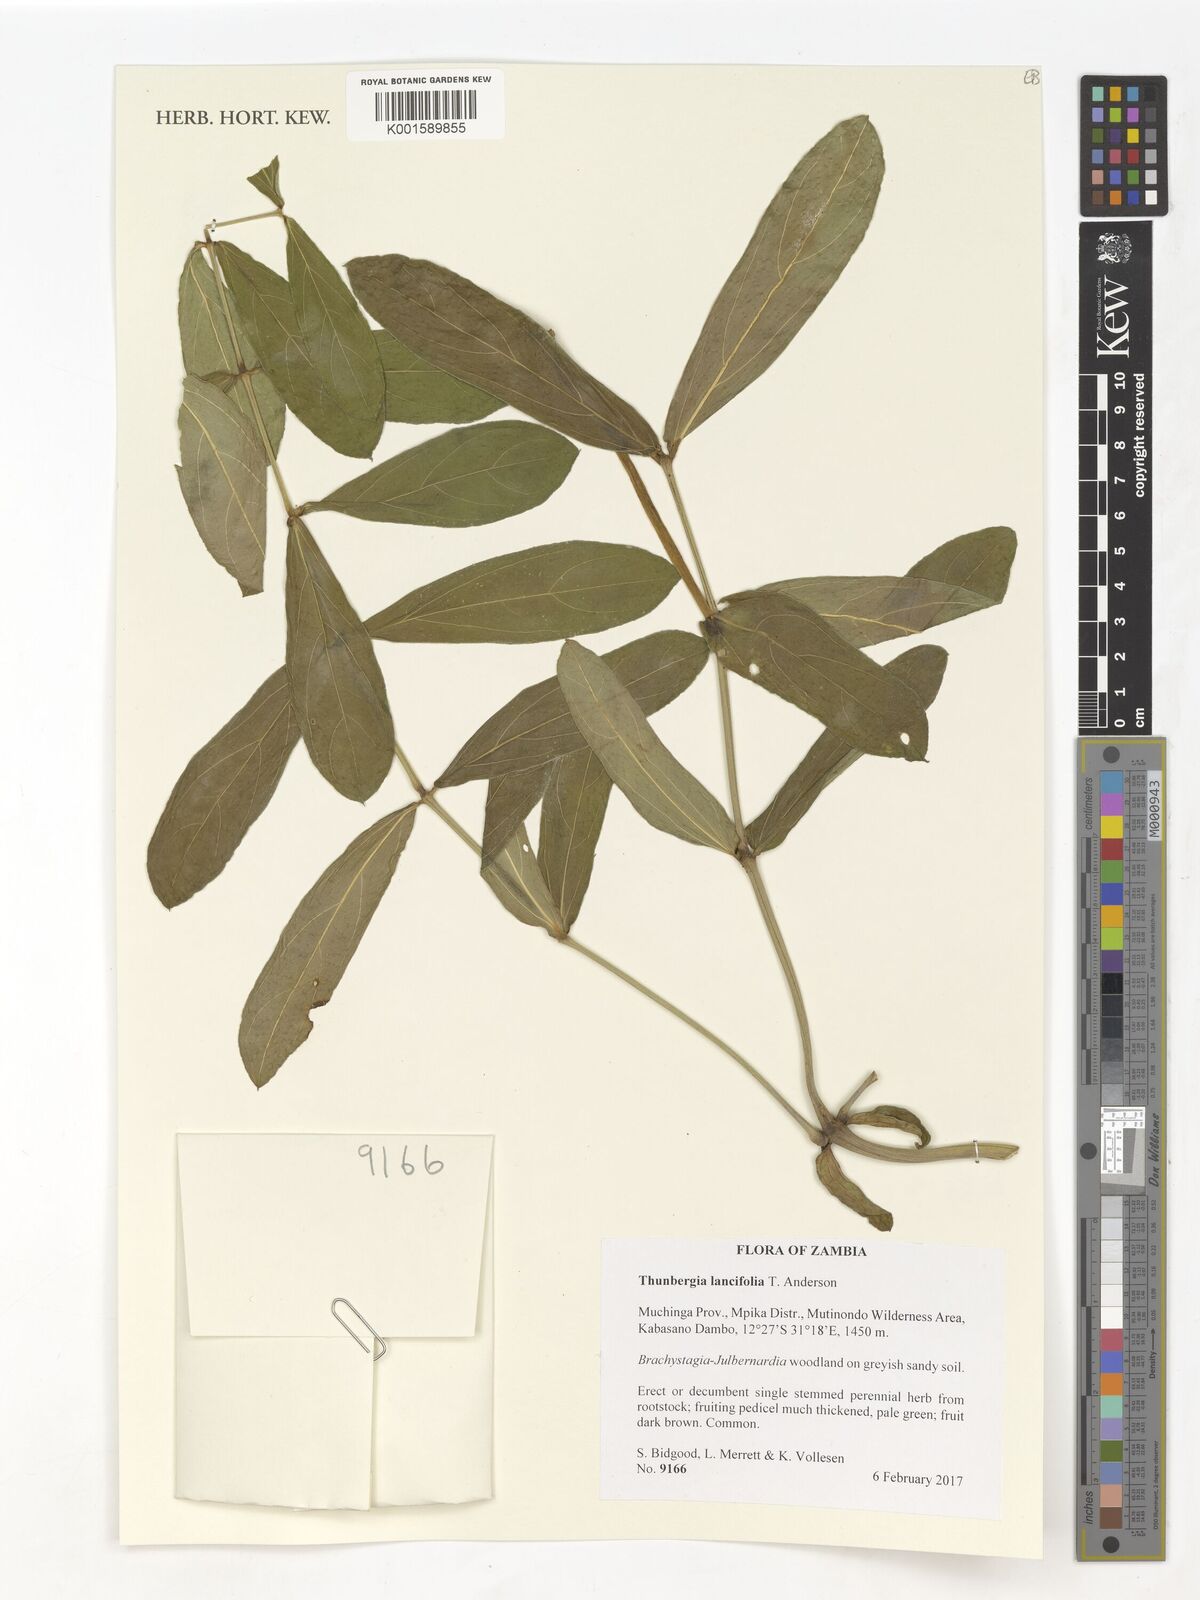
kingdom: Plantae
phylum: Tracheophyta
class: Magnoliopsida
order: Lamiales
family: Acanthaceae
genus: Thunbergia
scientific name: Thunbergia lancifolia
